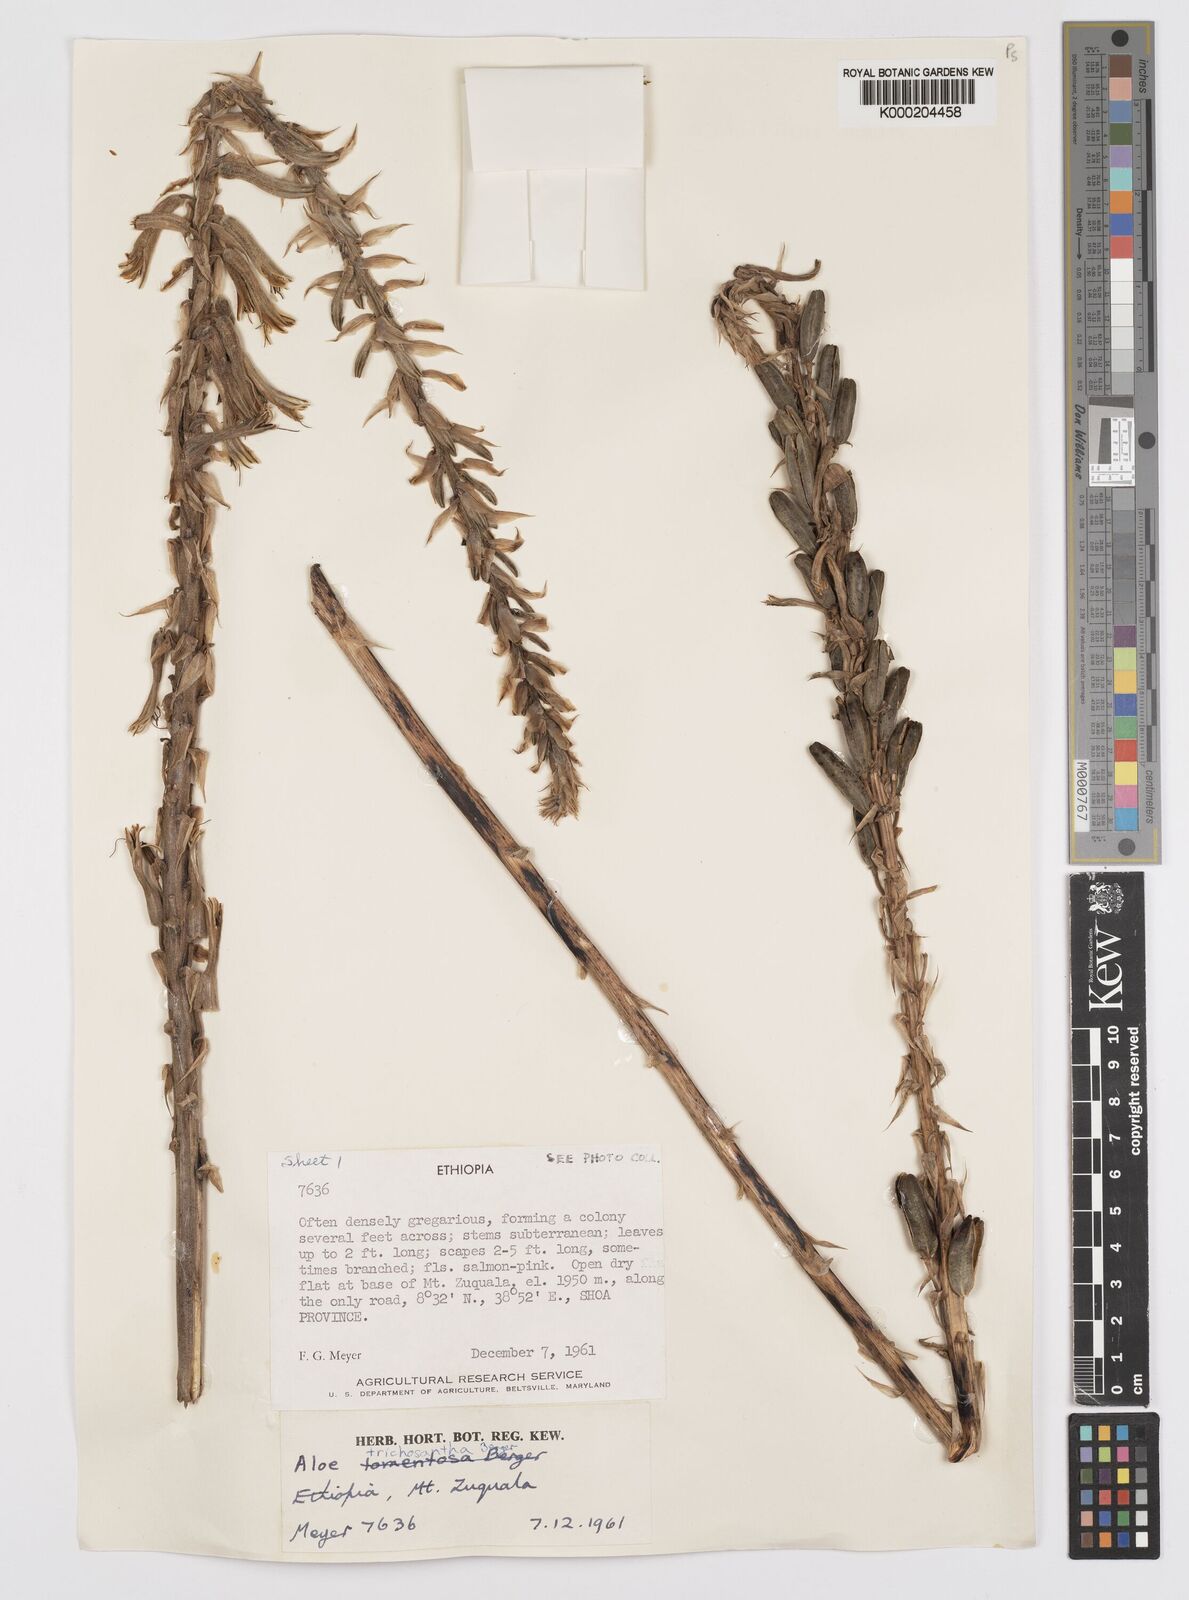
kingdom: Plantae
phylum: Tracheophyta
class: Liliopsida
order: Asparagales
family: Asphodelaceae
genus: Aloe
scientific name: Aloe trichosantha
